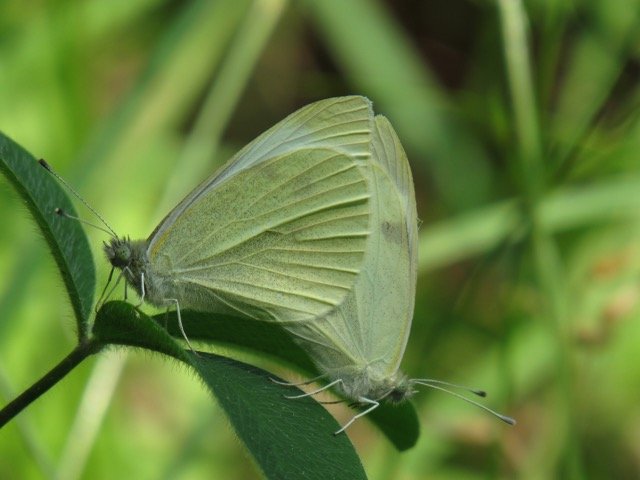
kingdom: Animalia
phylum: Arthropoda
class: Insecta
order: Lepidoptera
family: Pieridae
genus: Pieris
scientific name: Pieris rapae
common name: Cabbage White
